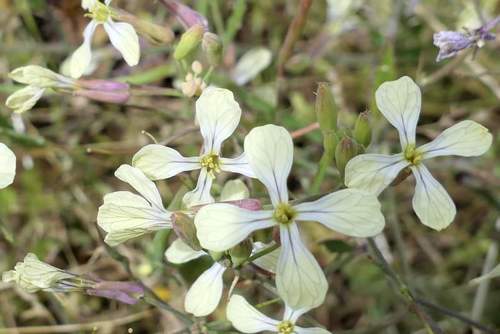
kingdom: Plantae
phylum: Tracheophyta
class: Magnoliopsida
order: Brassicales
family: Brassicaceae
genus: Raphanus
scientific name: Raphanus raphanistrum
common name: Wild radish
